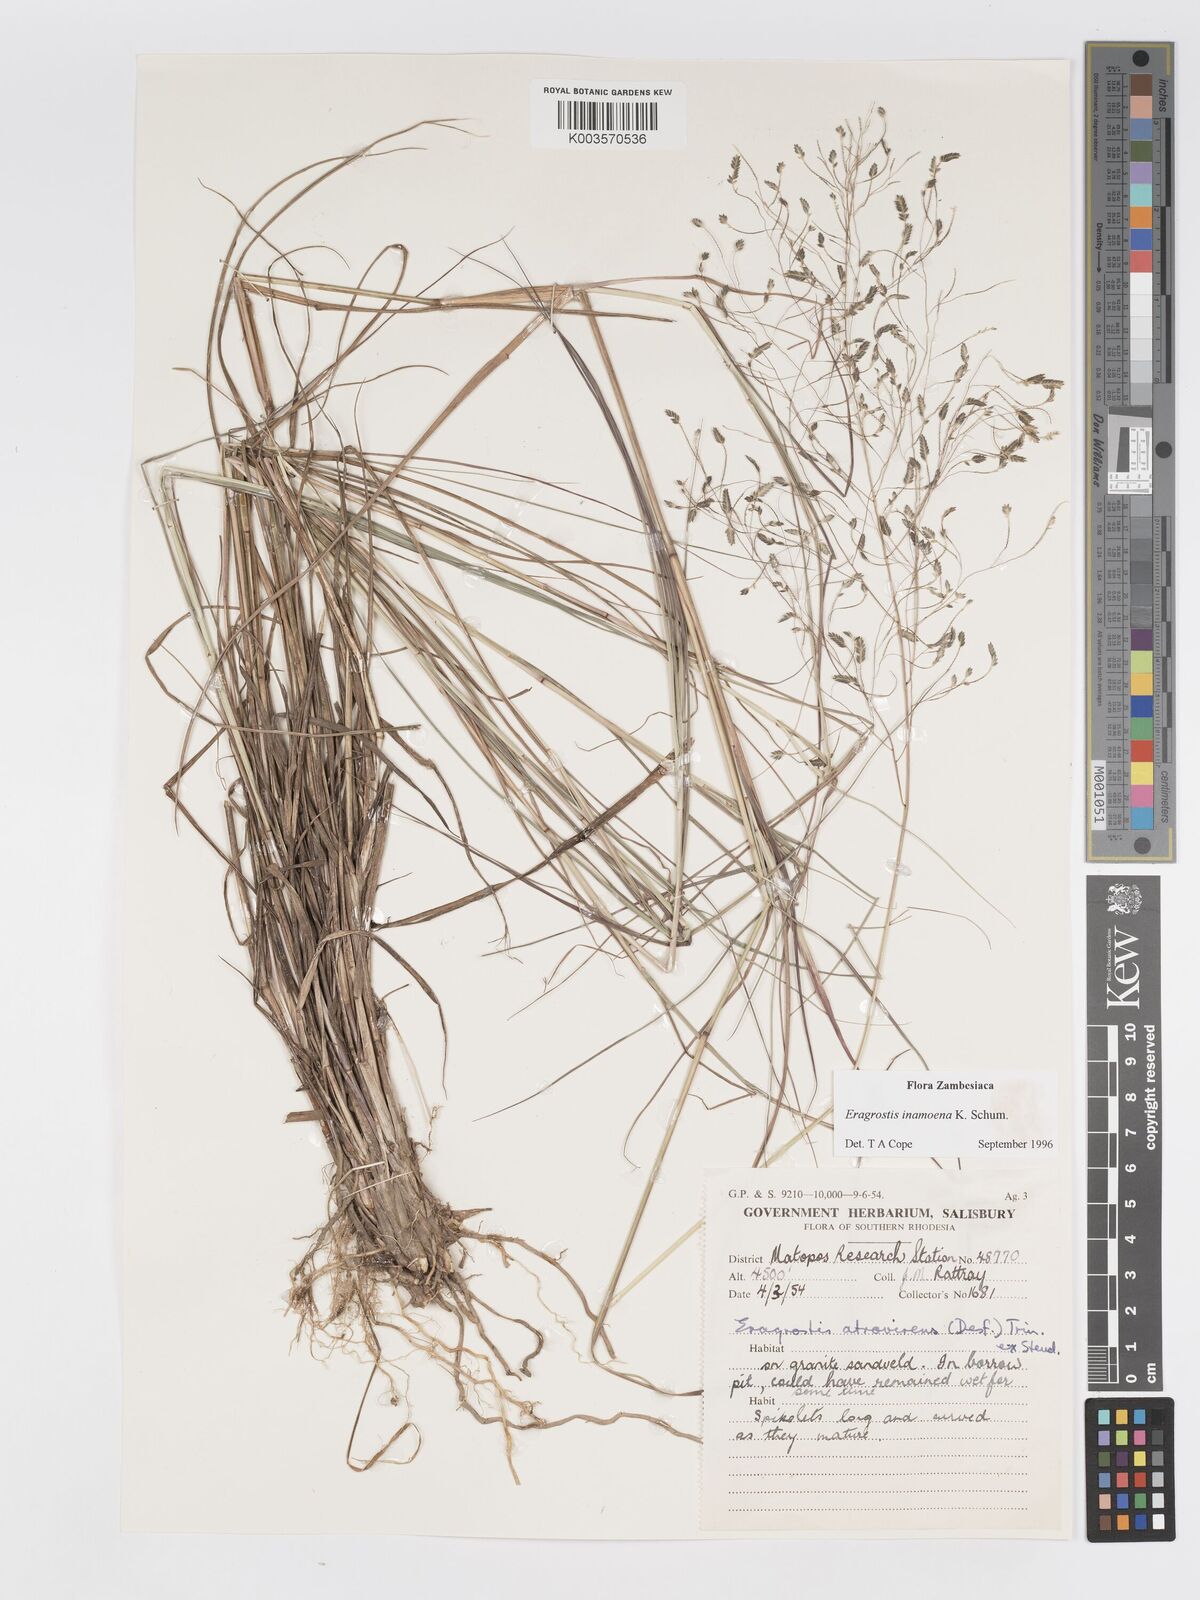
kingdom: Plantae
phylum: Tracheophyta
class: Liliopsida
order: Poales
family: Poaceae
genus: Eragrostis
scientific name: Eragrostis inamoena
